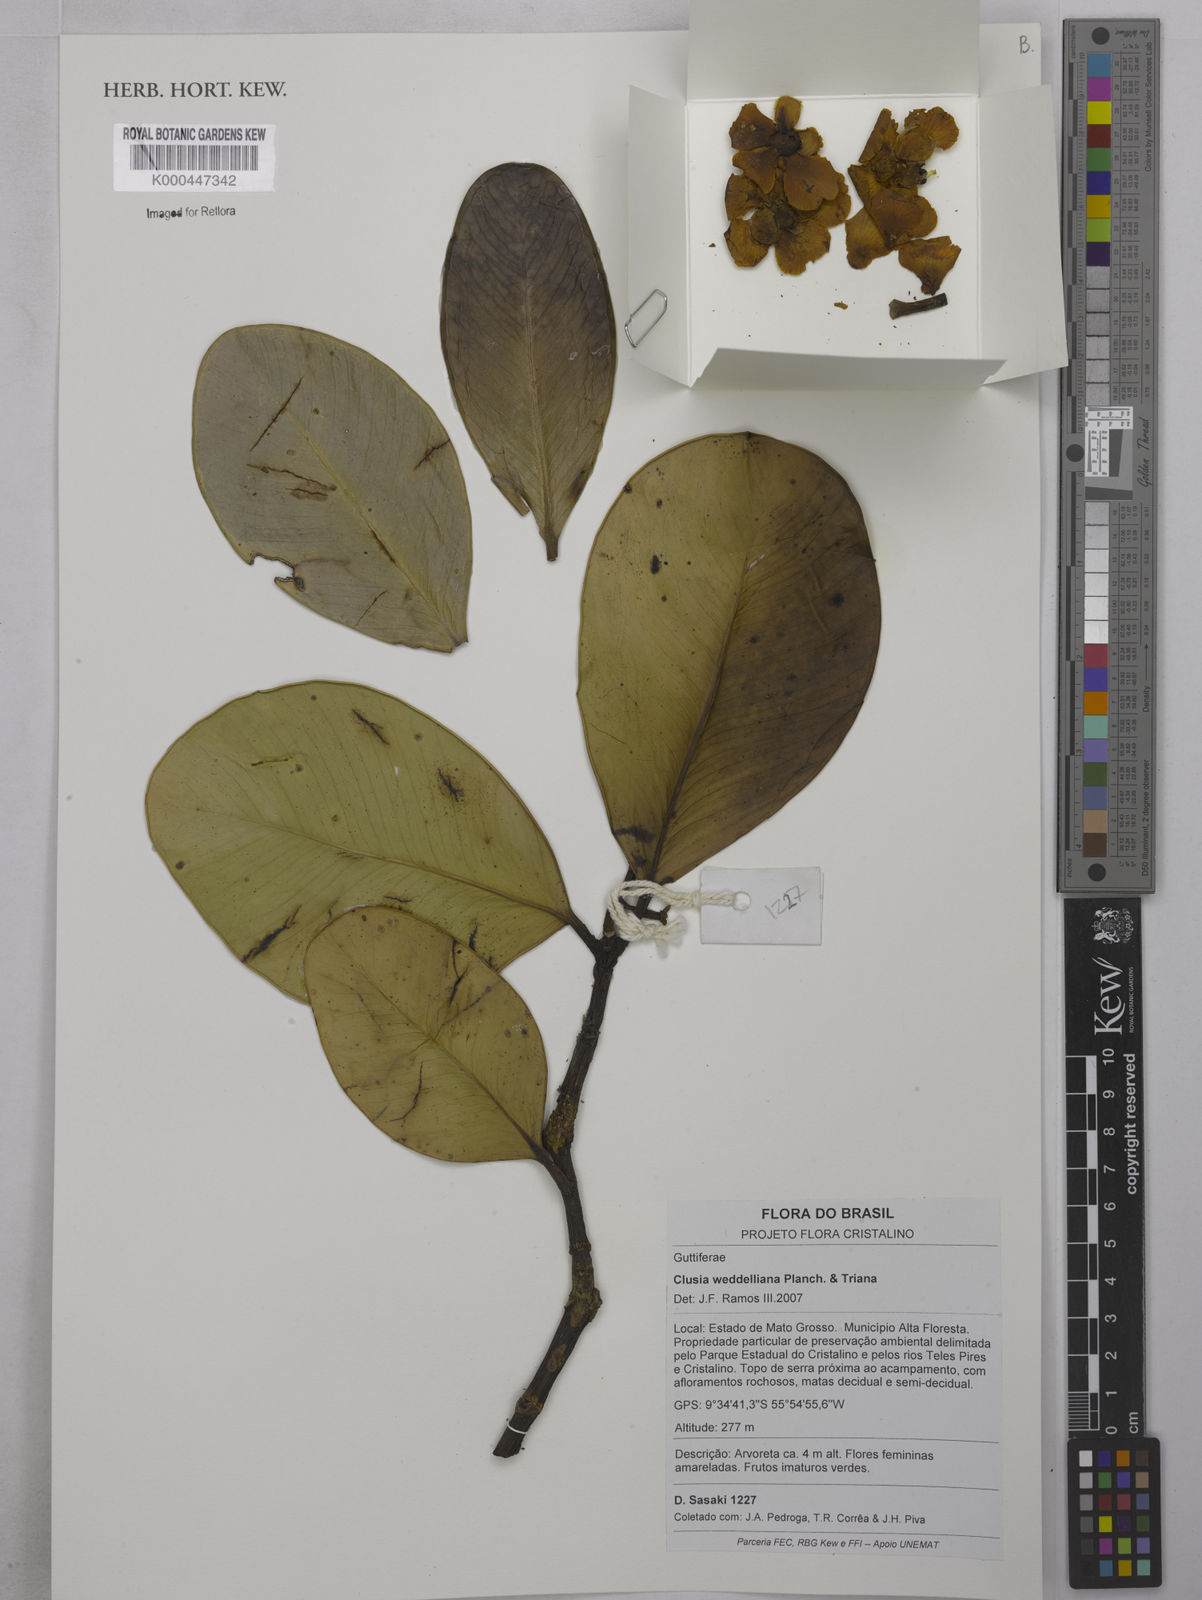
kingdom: Plantae
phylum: Tracheophyta
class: Magnoliopsida
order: Malpighiales
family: Clusiaceae
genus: Clusia
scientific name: Clusia weddelliana
